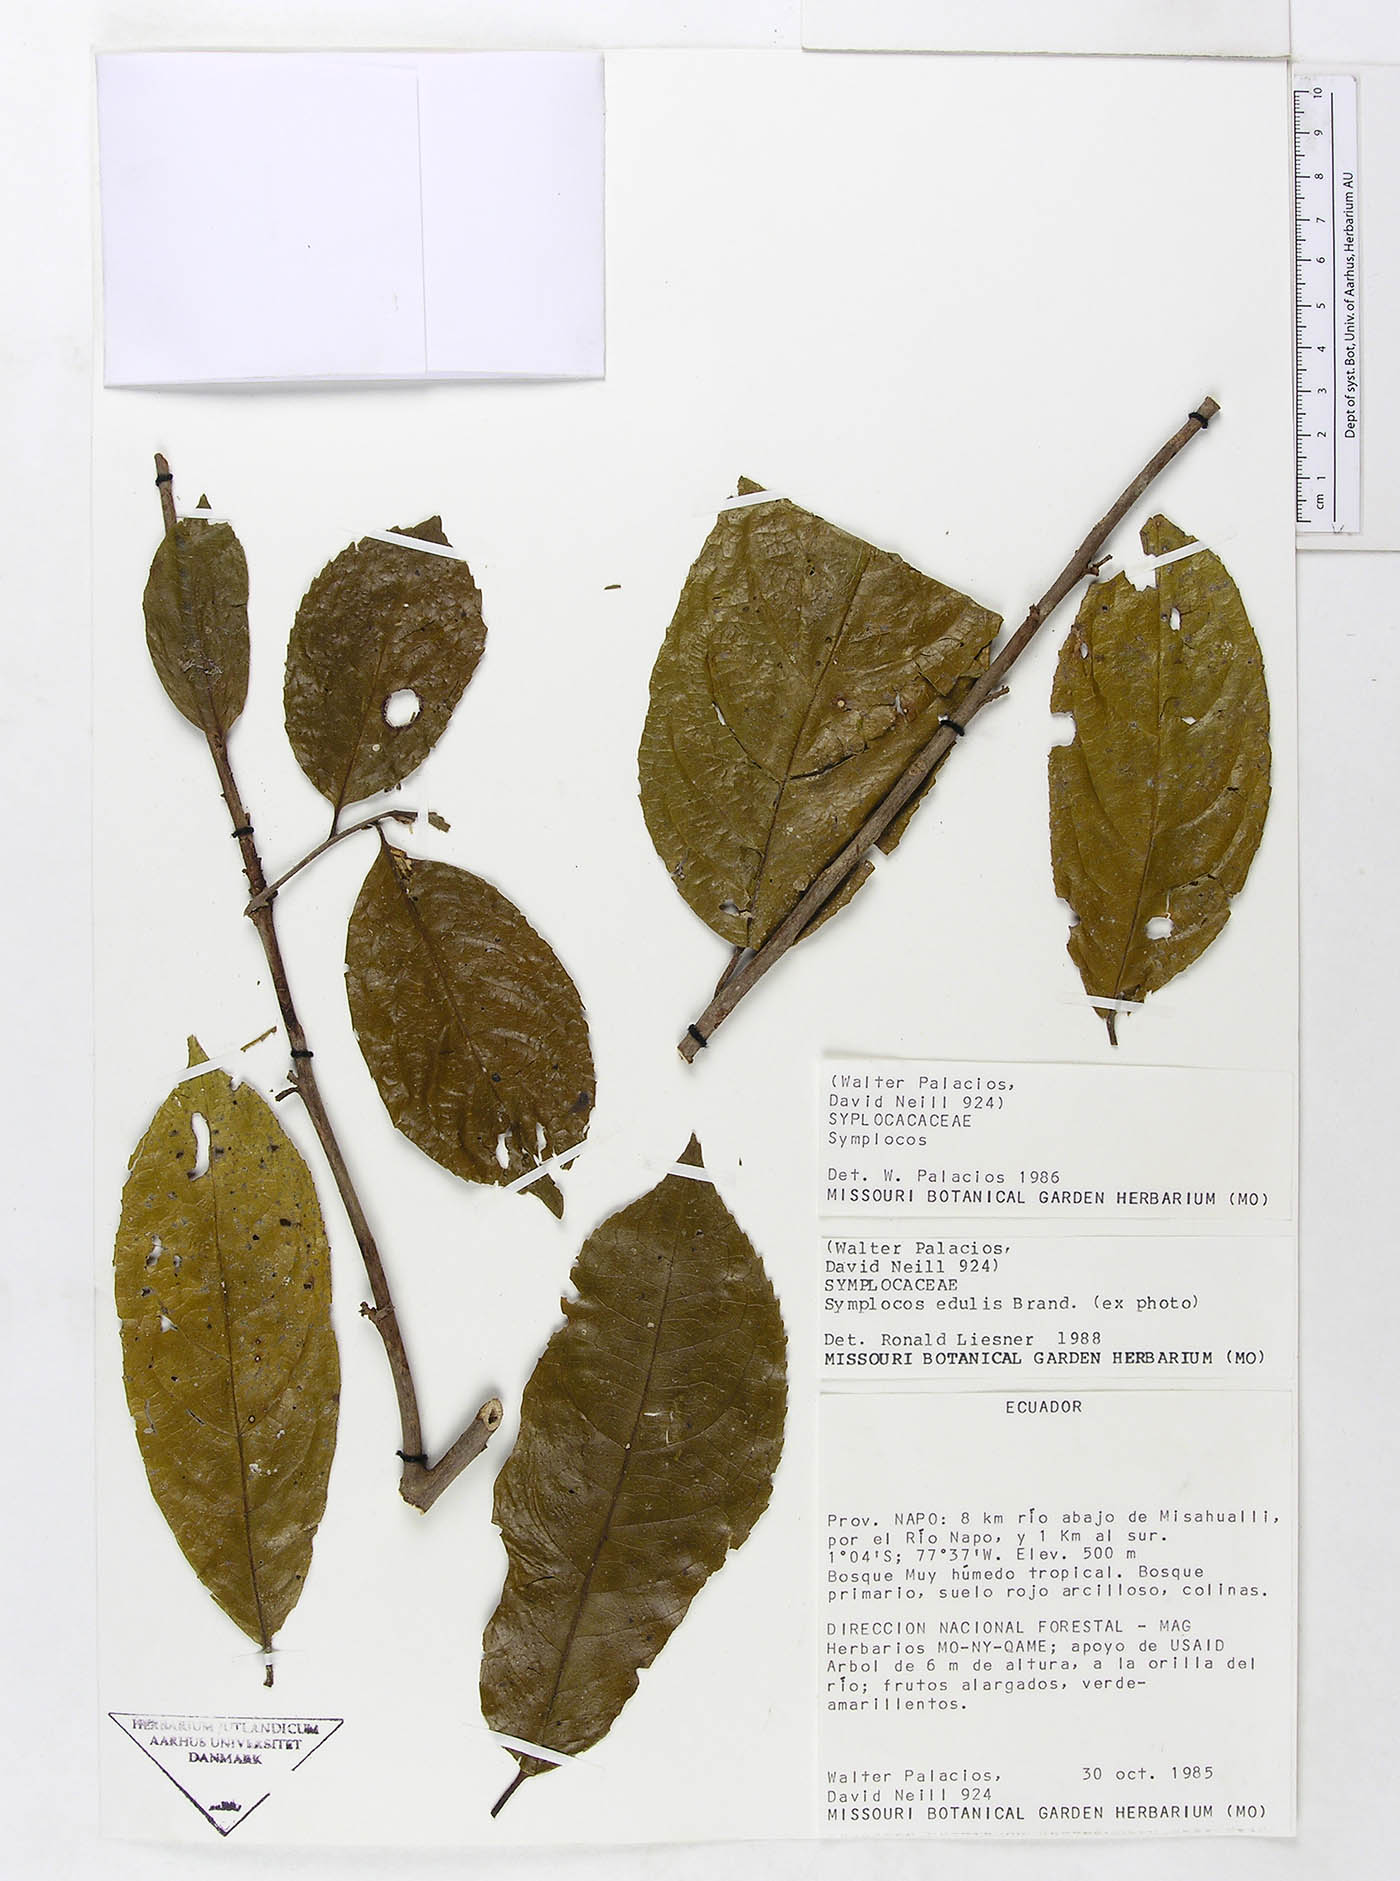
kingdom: Plantae
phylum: Tracheophyta
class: Magnoliopsida
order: Ericales
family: Symplocaceae
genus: Symplocos
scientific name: Symplocos arechea
